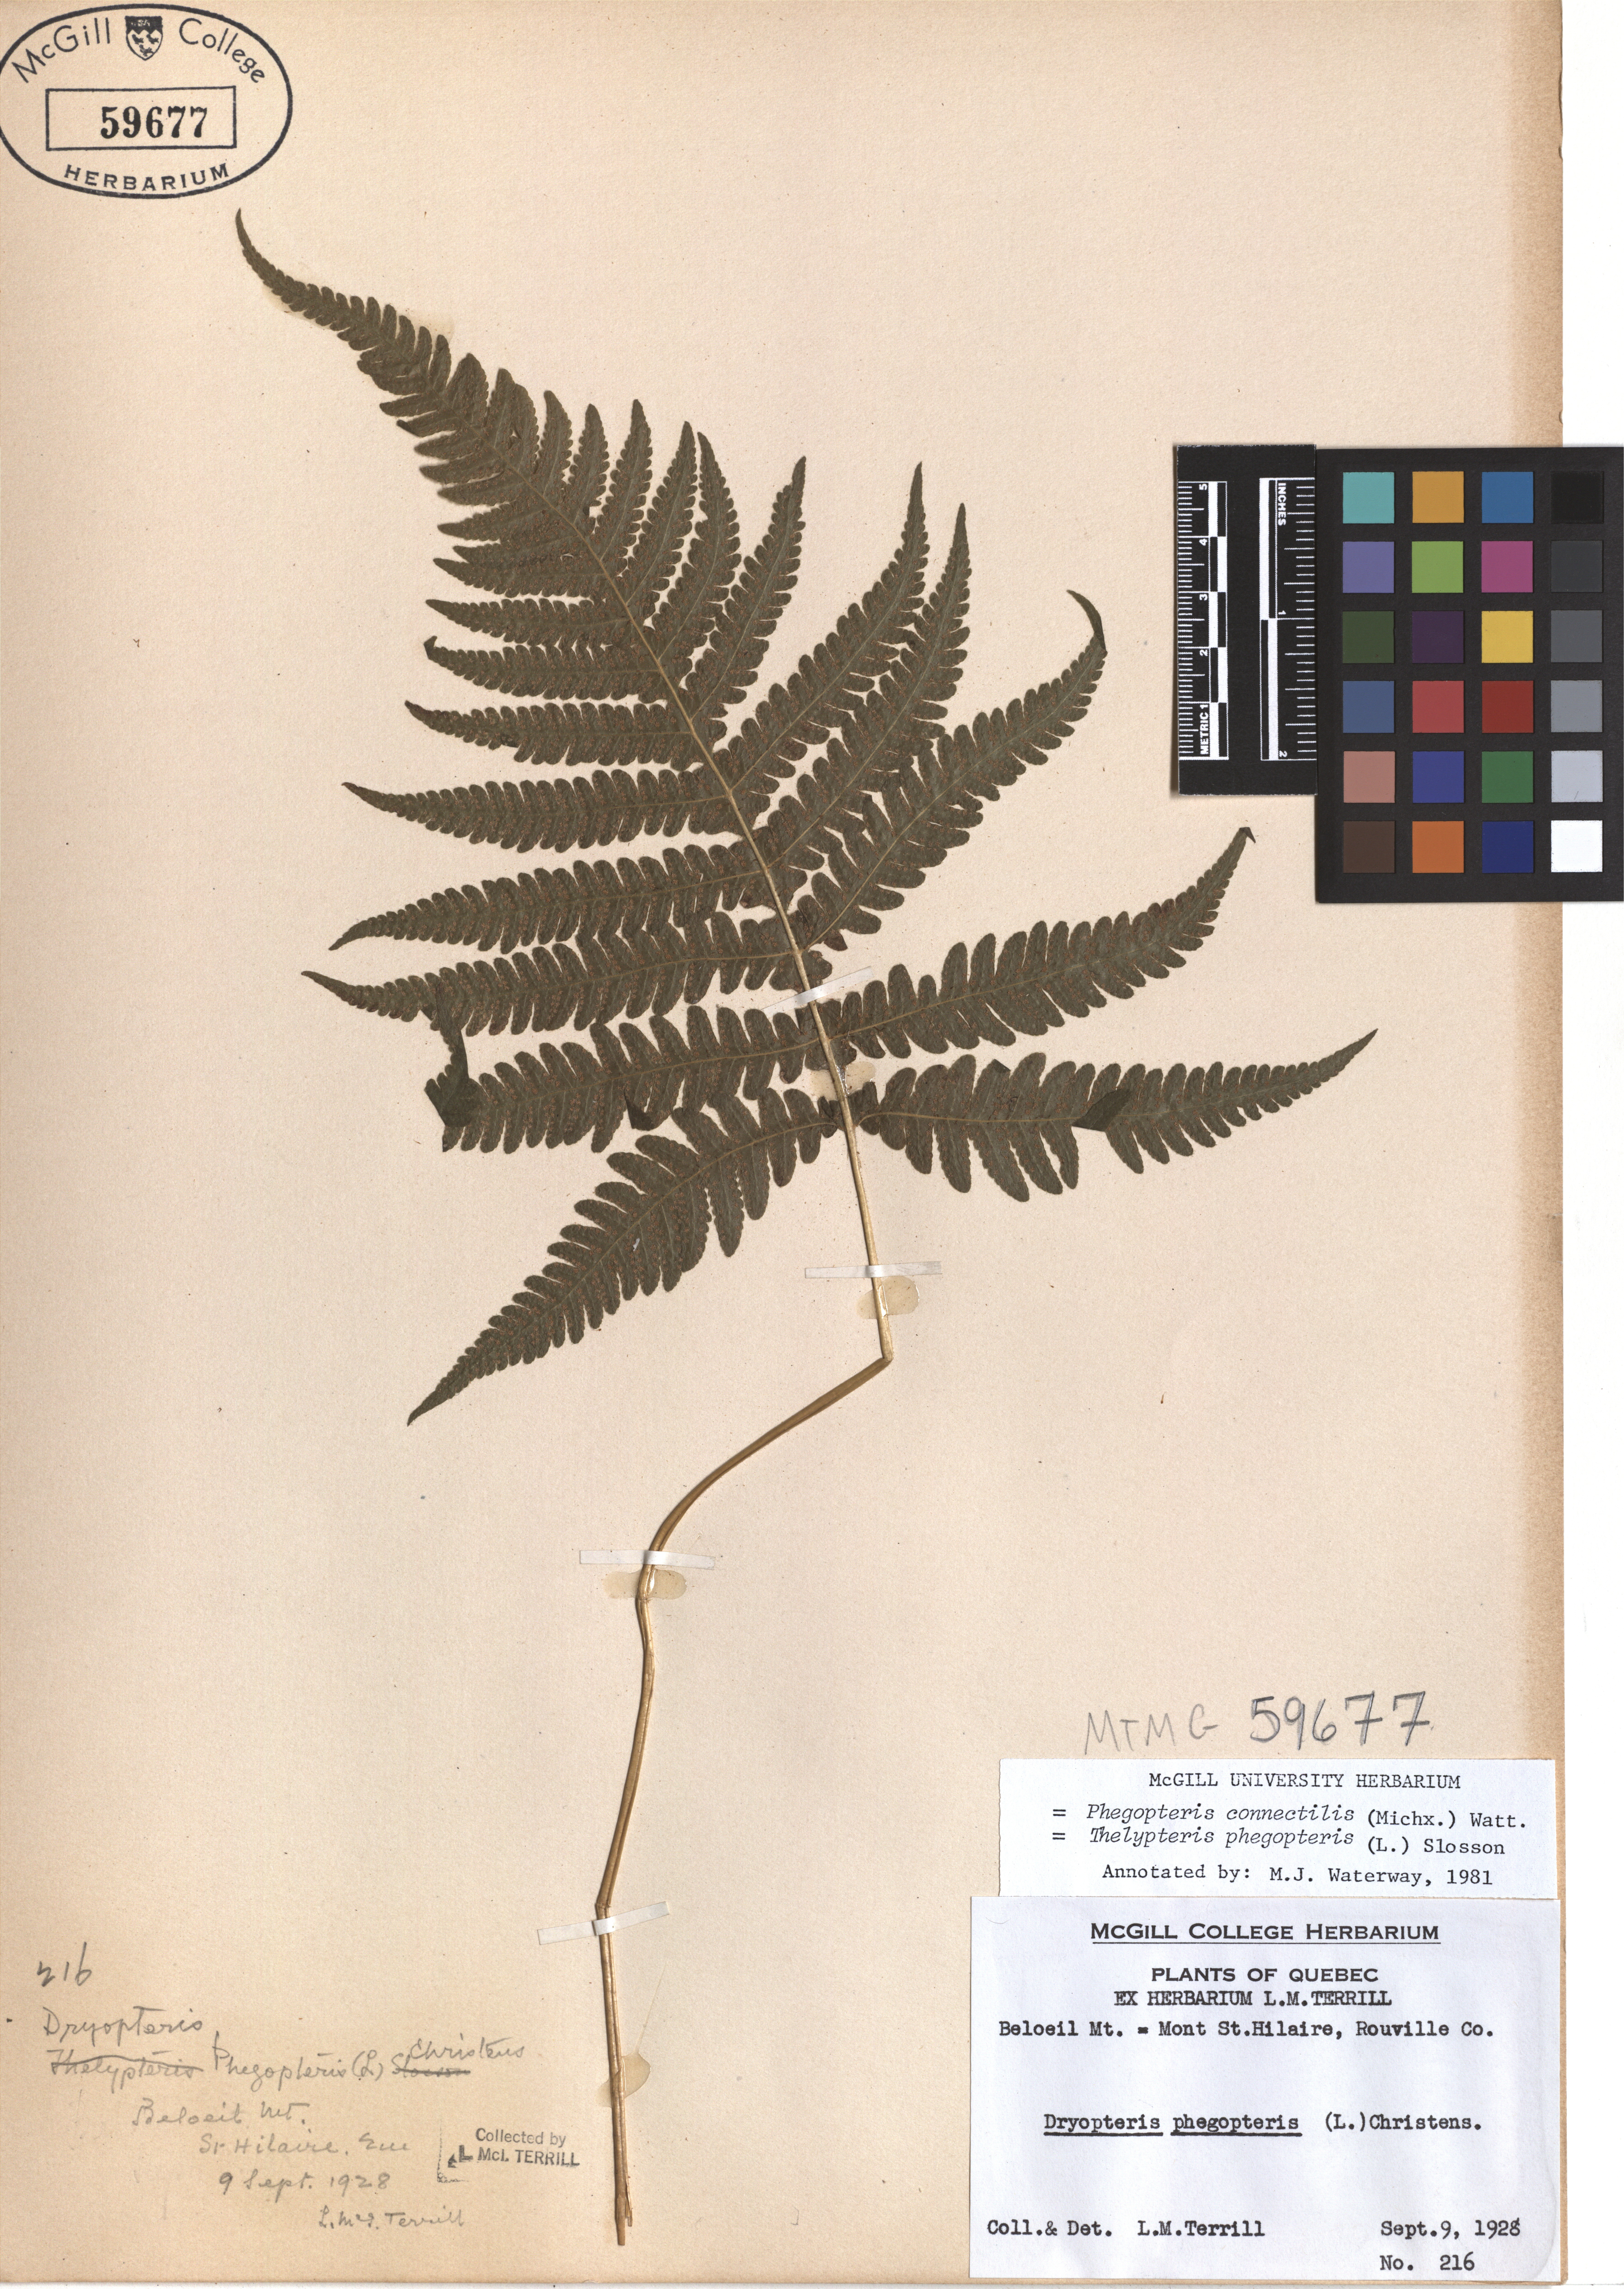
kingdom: Plantae
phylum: Tracheophyta
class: Polypodiopsida
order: Polypodiales
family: Thelypteridaceae
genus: Phegopteris
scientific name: Phegopteris connectilis
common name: Beech fern
